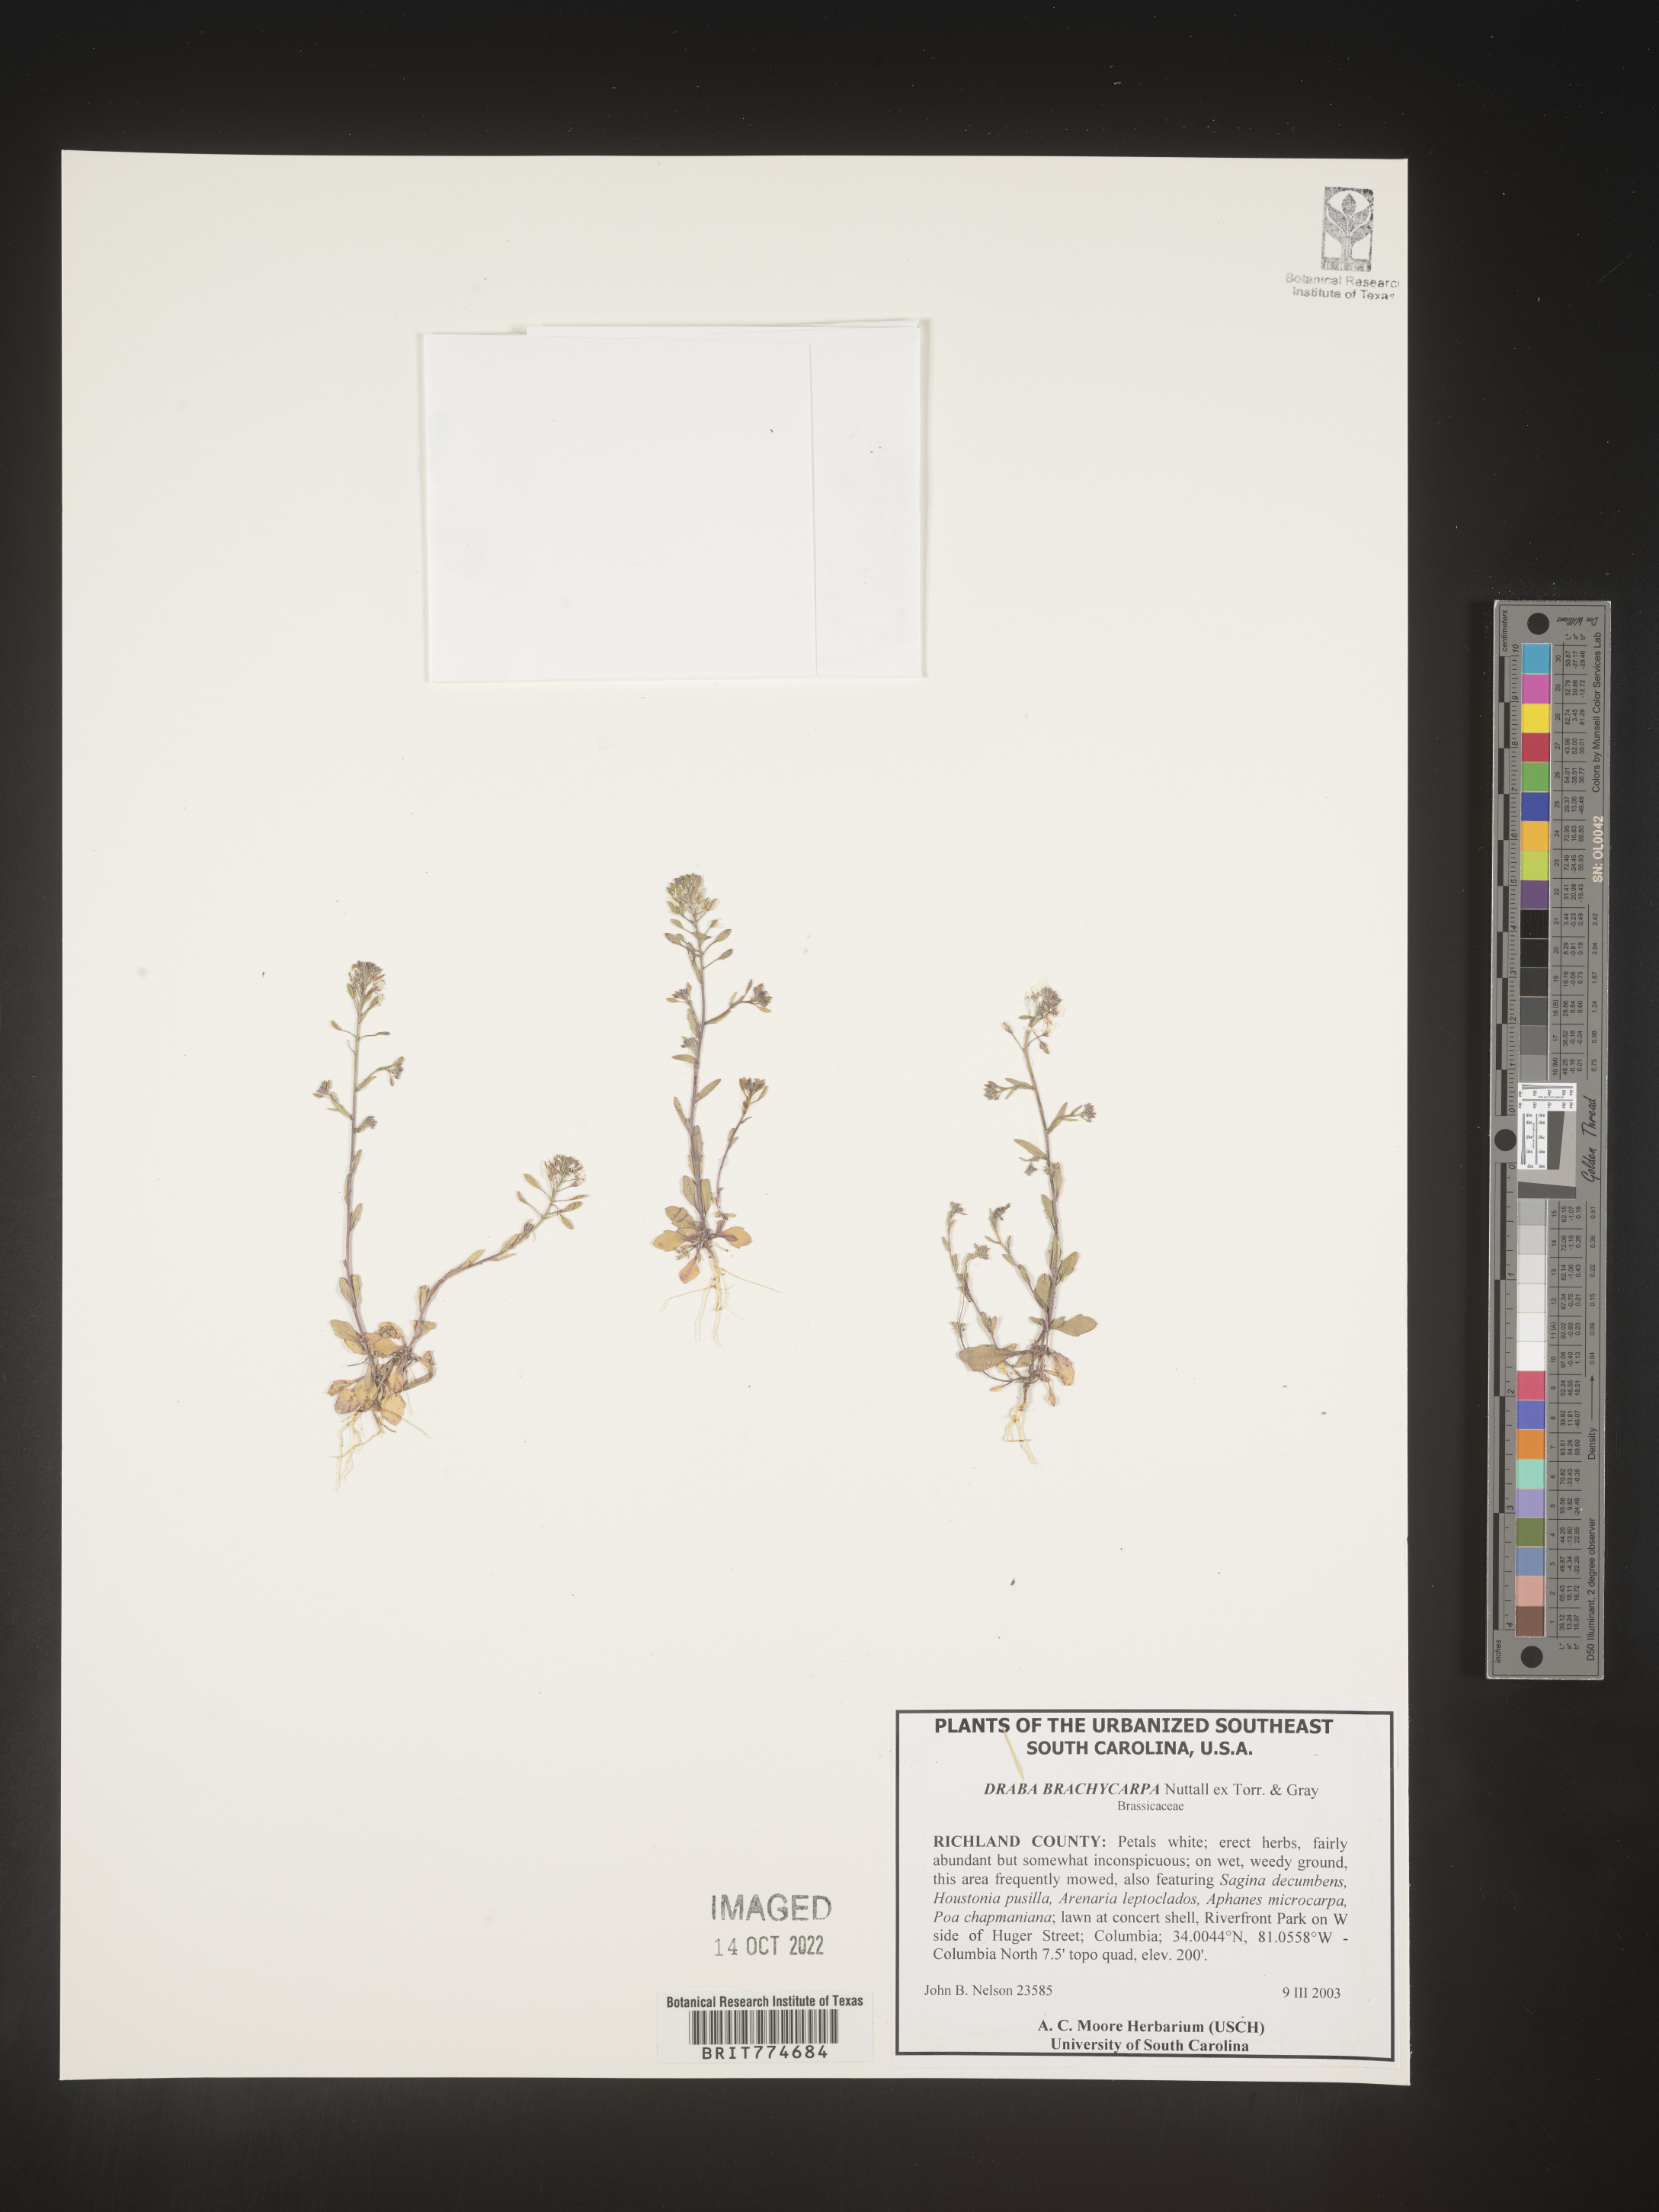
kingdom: Plantae
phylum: Tracheophyta
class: Magnoliopsida
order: Brassicales
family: Brassicaceae
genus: Abdra
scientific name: Abdra brachycarpa
